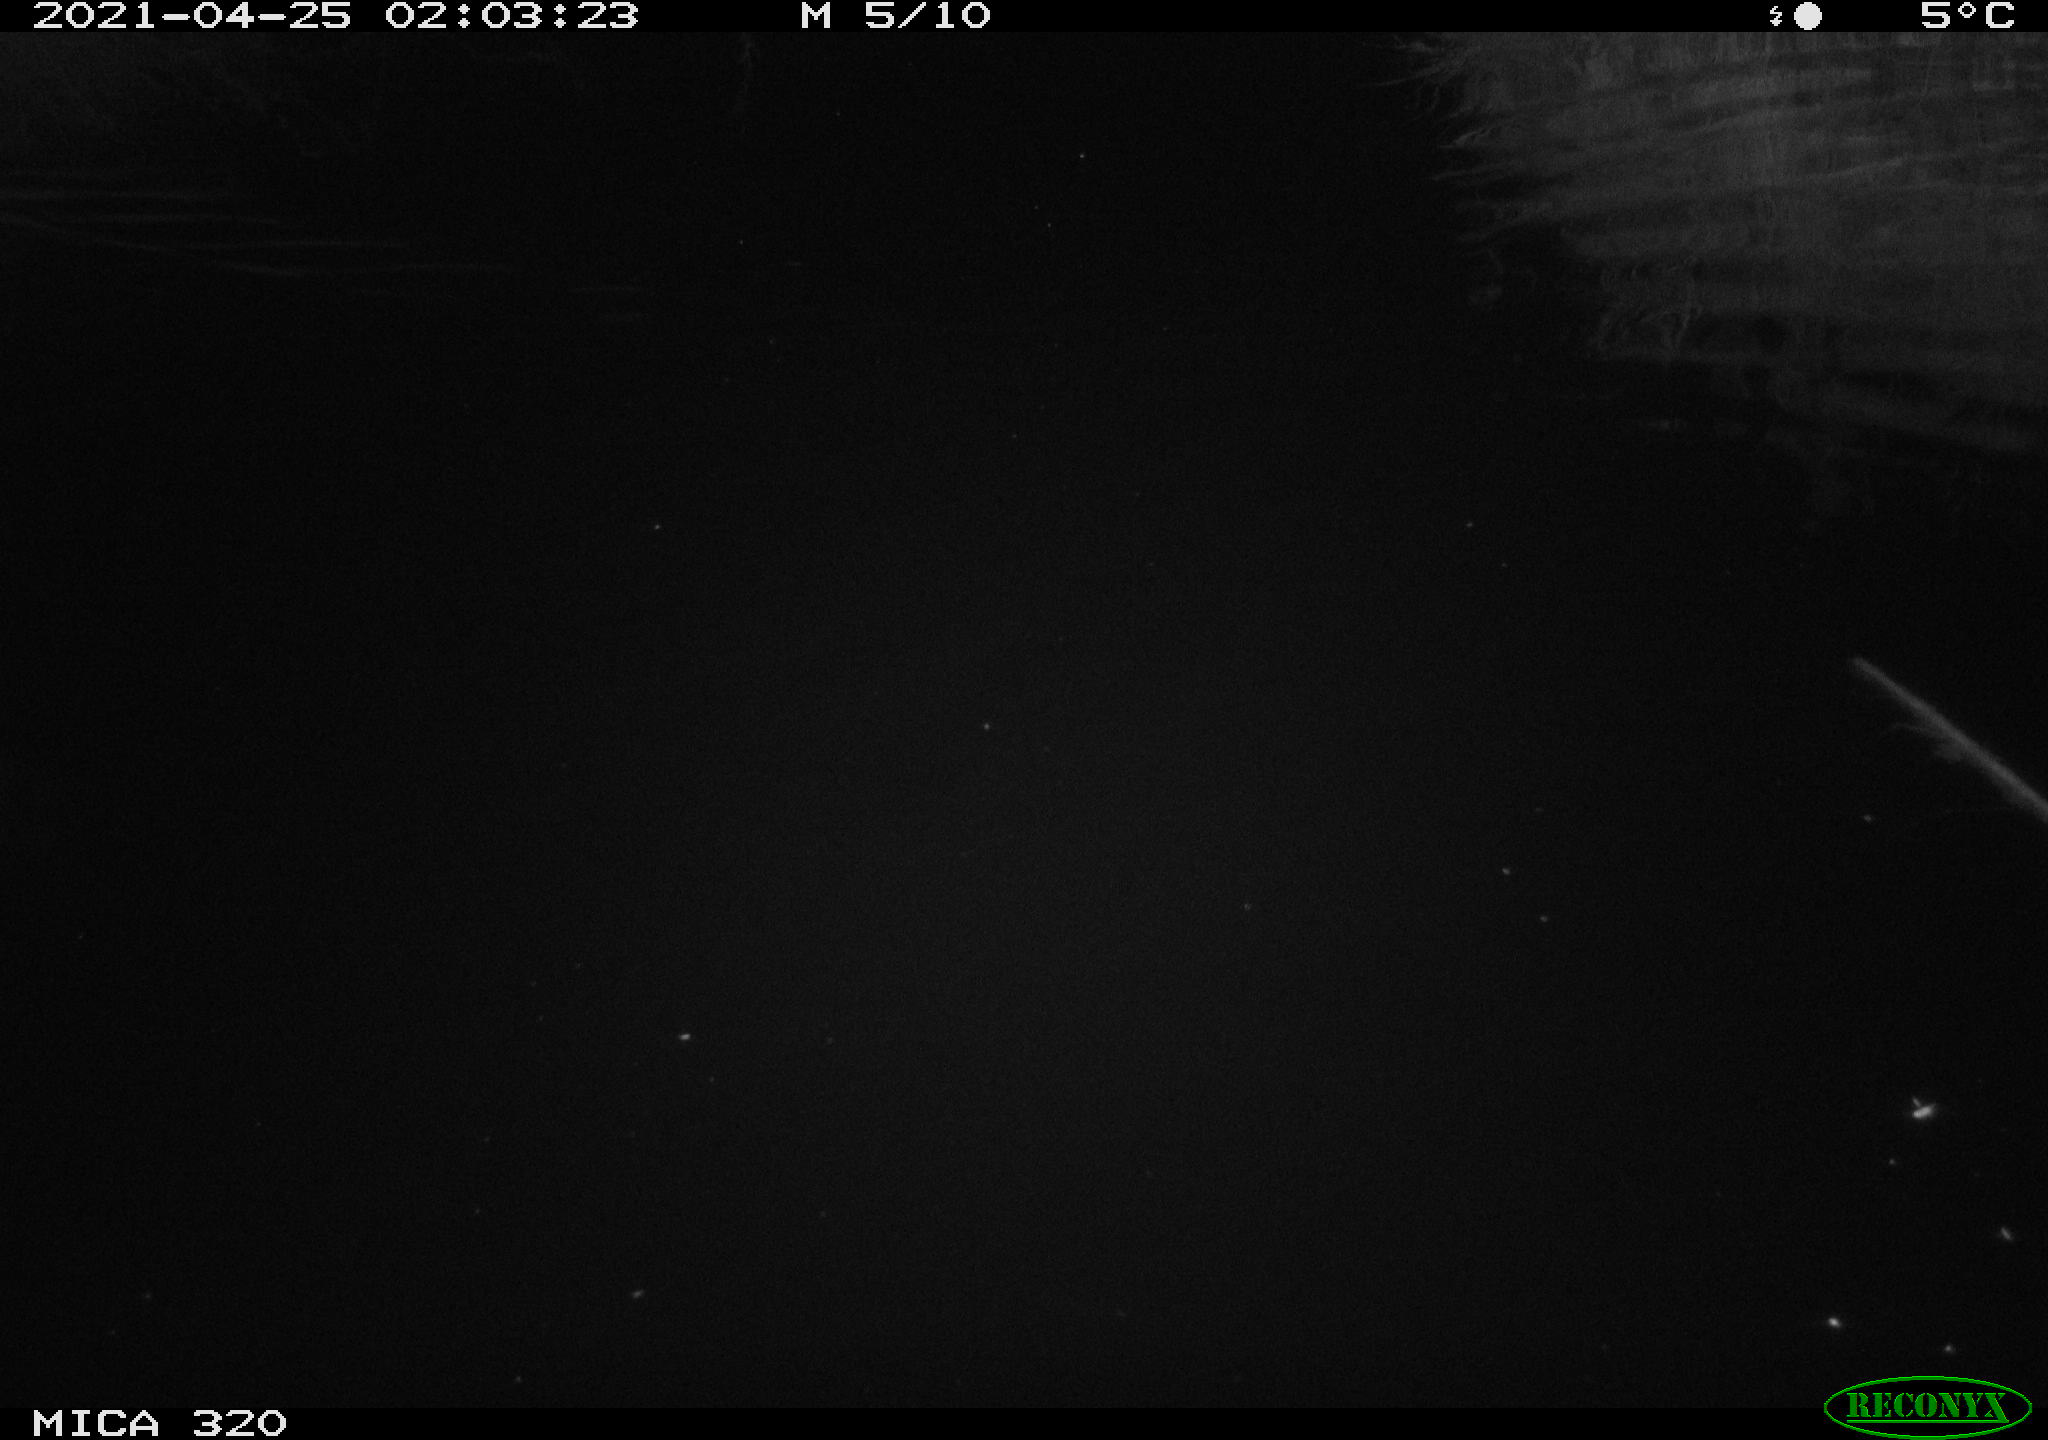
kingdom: Animalia
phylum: Chordata
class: Aves
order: Anseriformes
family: Anatidae
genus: Anas
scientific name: Anas platyrhynchos
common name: Mallard
